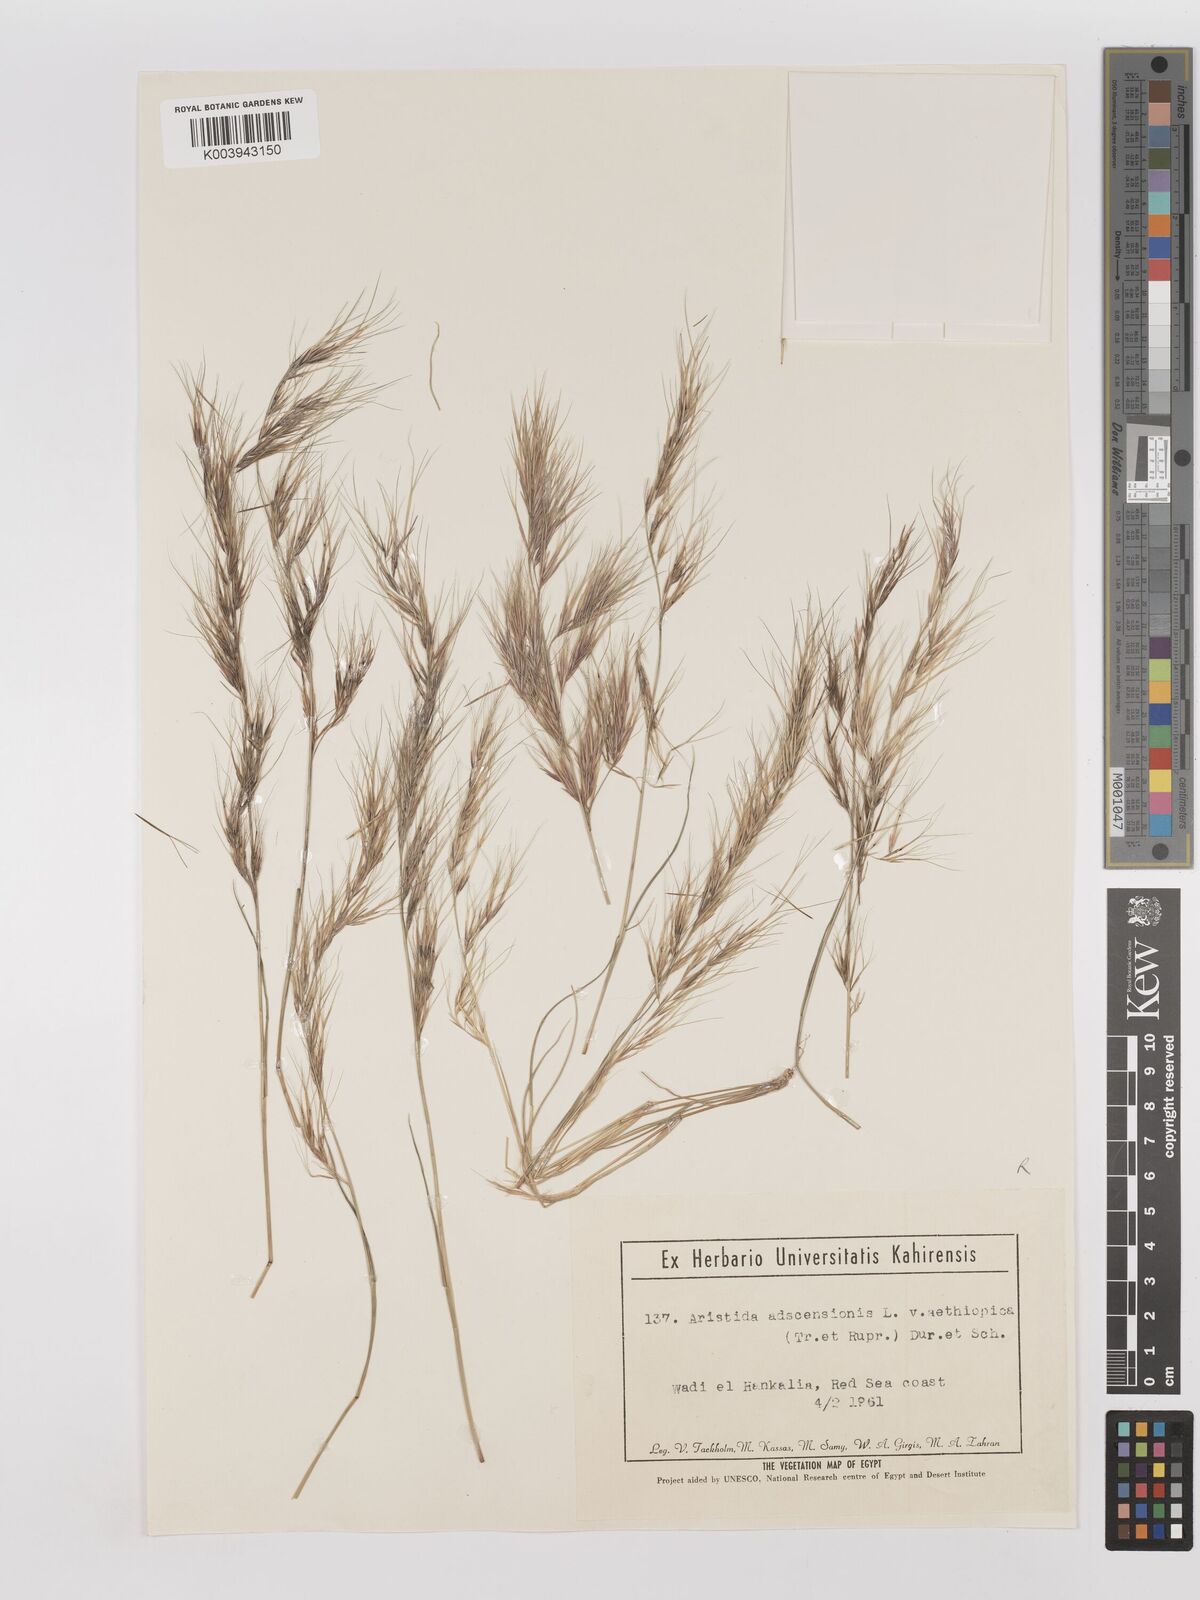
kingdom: Plantae
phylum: Tracheophyta
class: Liliopsida
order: Poales
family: Poaceae
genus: Aristida
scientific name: Aristida adscensionis
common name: Sixweeks threeawn
